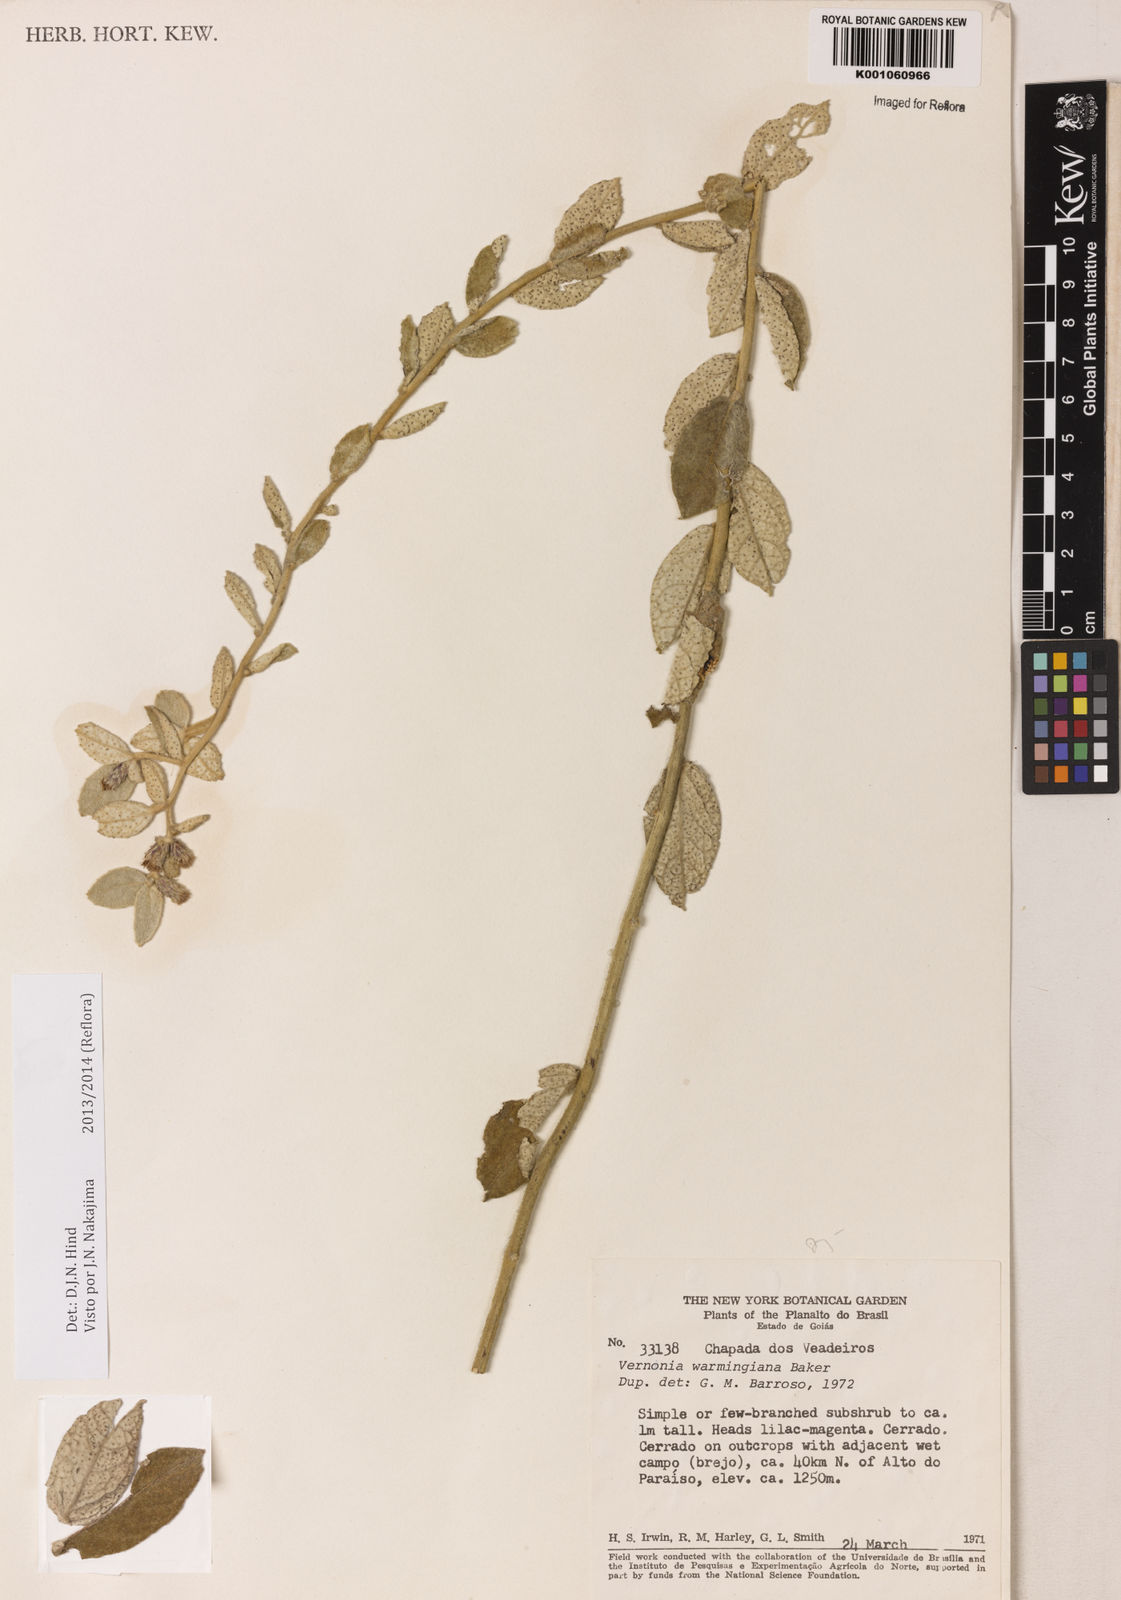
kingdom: Plantae
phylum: Tracheophyta
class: Magnoliopsida
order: Asterales
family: Asteraceae
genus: Lessingianthus
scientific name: Lessingianthus warmingianus
